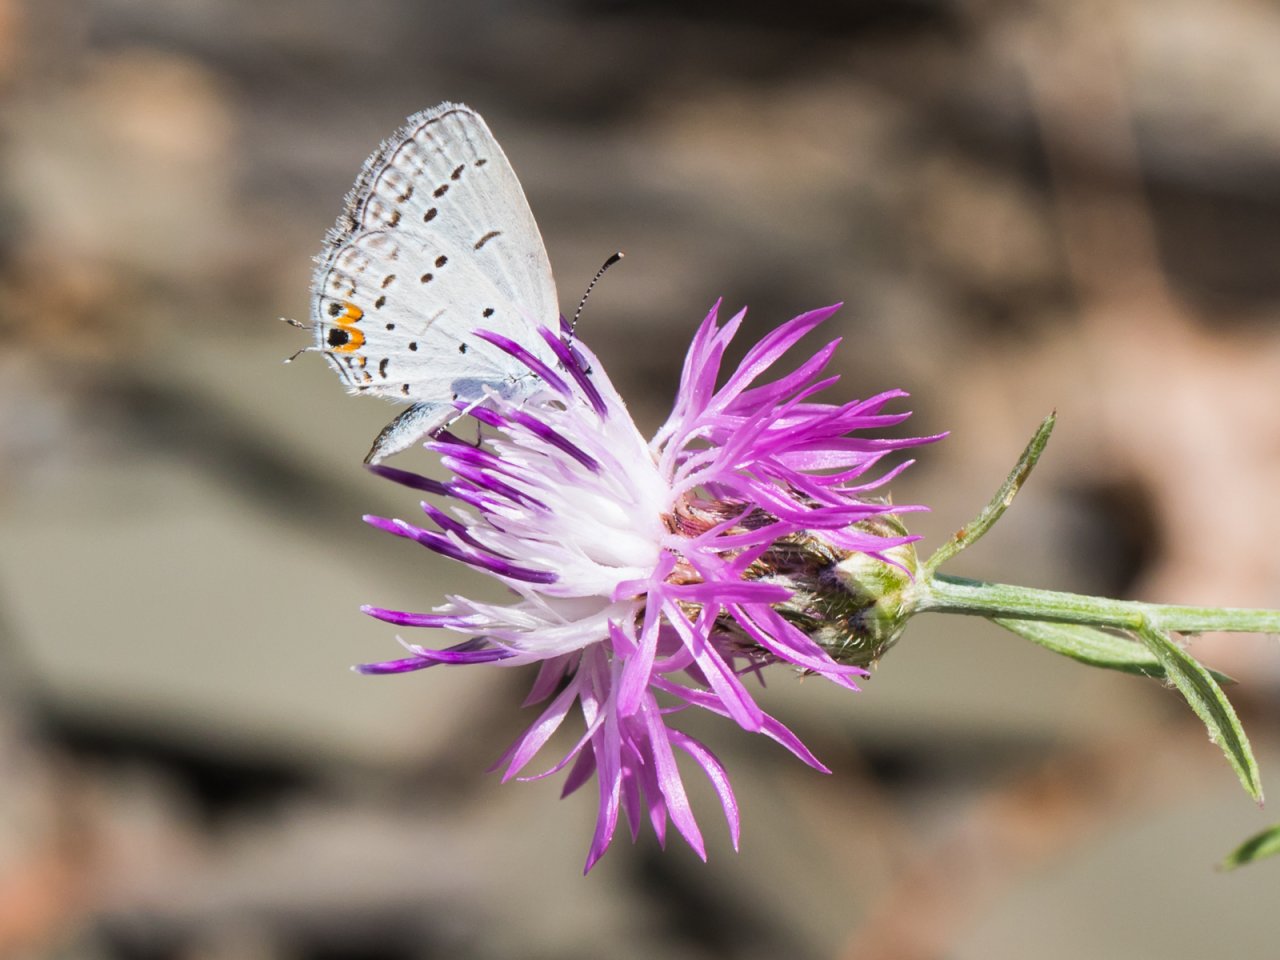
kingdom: Animalia
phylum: Arthropoda
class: Insecta
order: Lepidoptera
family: Lycaenidae
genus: Elkalyce
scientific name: Elkalyce comyntas
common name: Eastern Tailed-Blue
